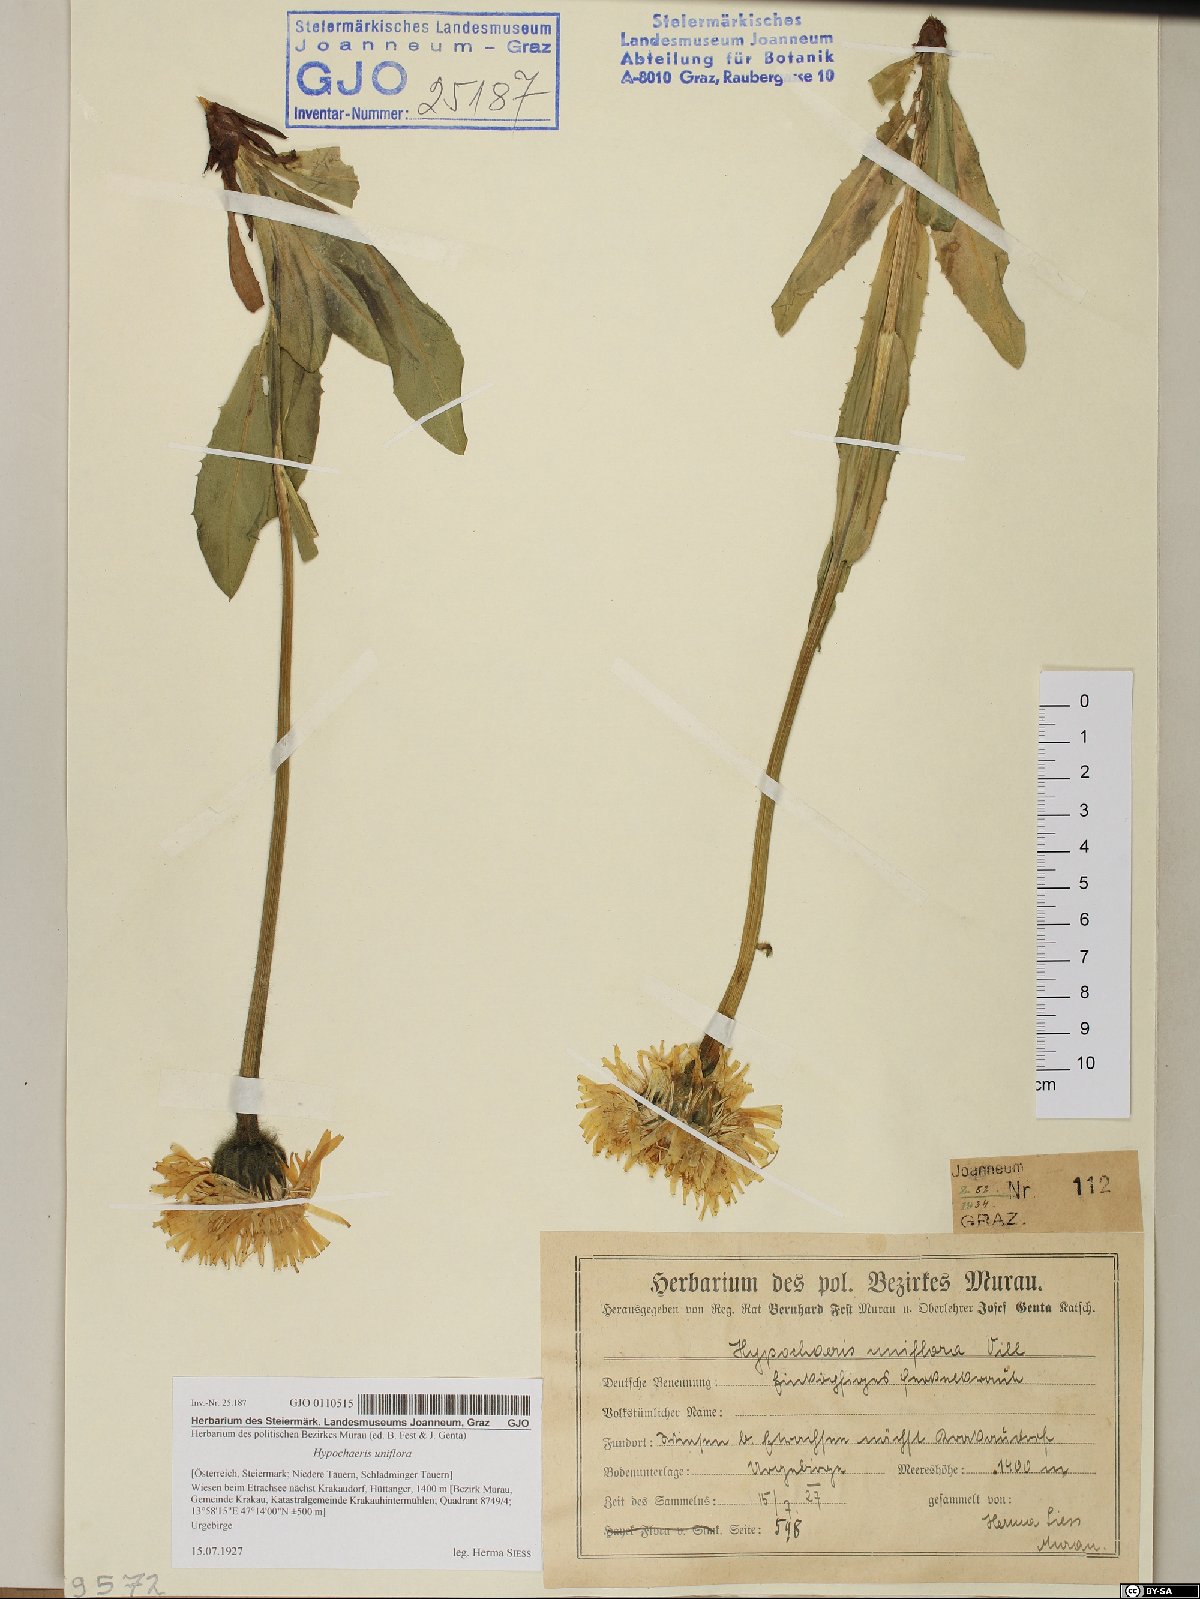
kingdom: Plantae
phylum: Tracheophyta
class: Magnoliopsida
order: Asterales
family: Asteraceae
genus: Trommsdorffia
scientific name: Trommsdorffia uniflora
